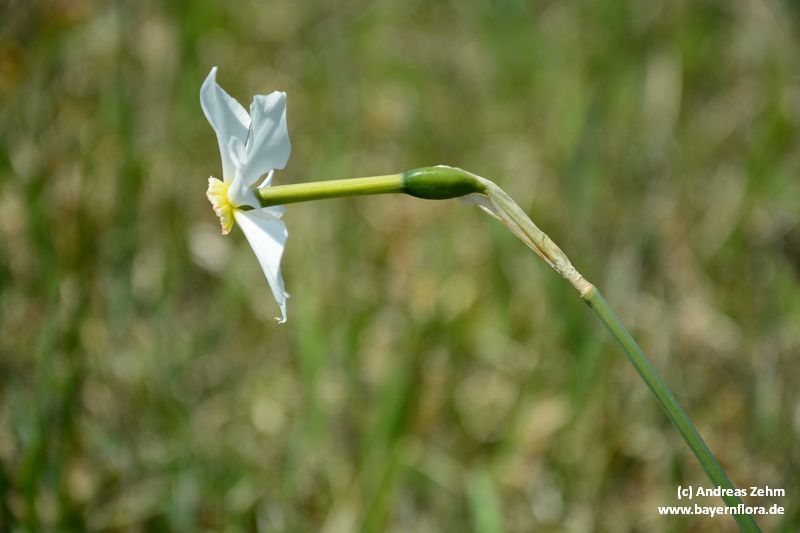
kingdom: Plantae
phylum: Tracheophyta
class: Liliopsida
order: Asparagales
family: Amaryllidaceae
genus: Narcissus
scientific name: Narcissus
